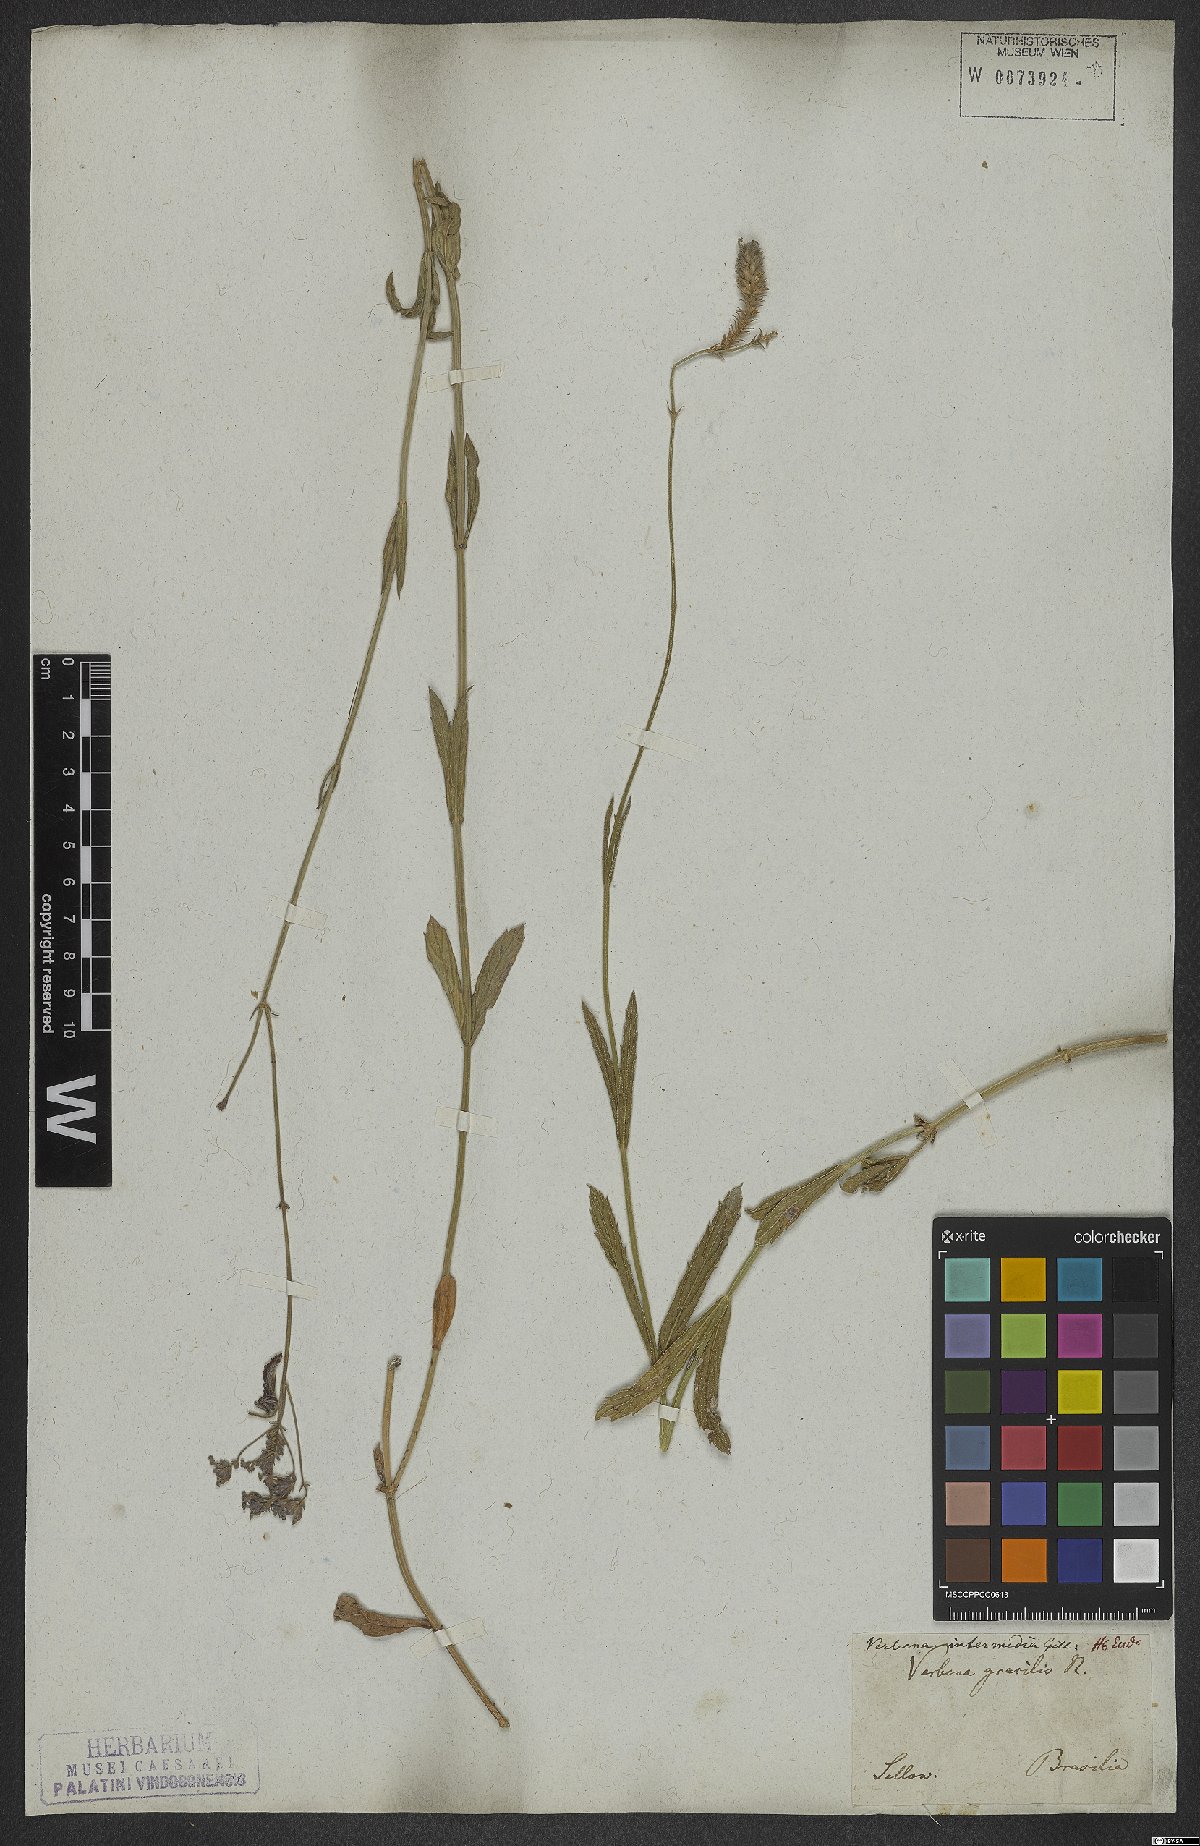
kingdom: Plantae
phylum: Tracheophyta
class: Magnoliopsida
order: Lamiales
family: Verbenaceae
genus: Verbena
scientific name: Verbena intermedia
